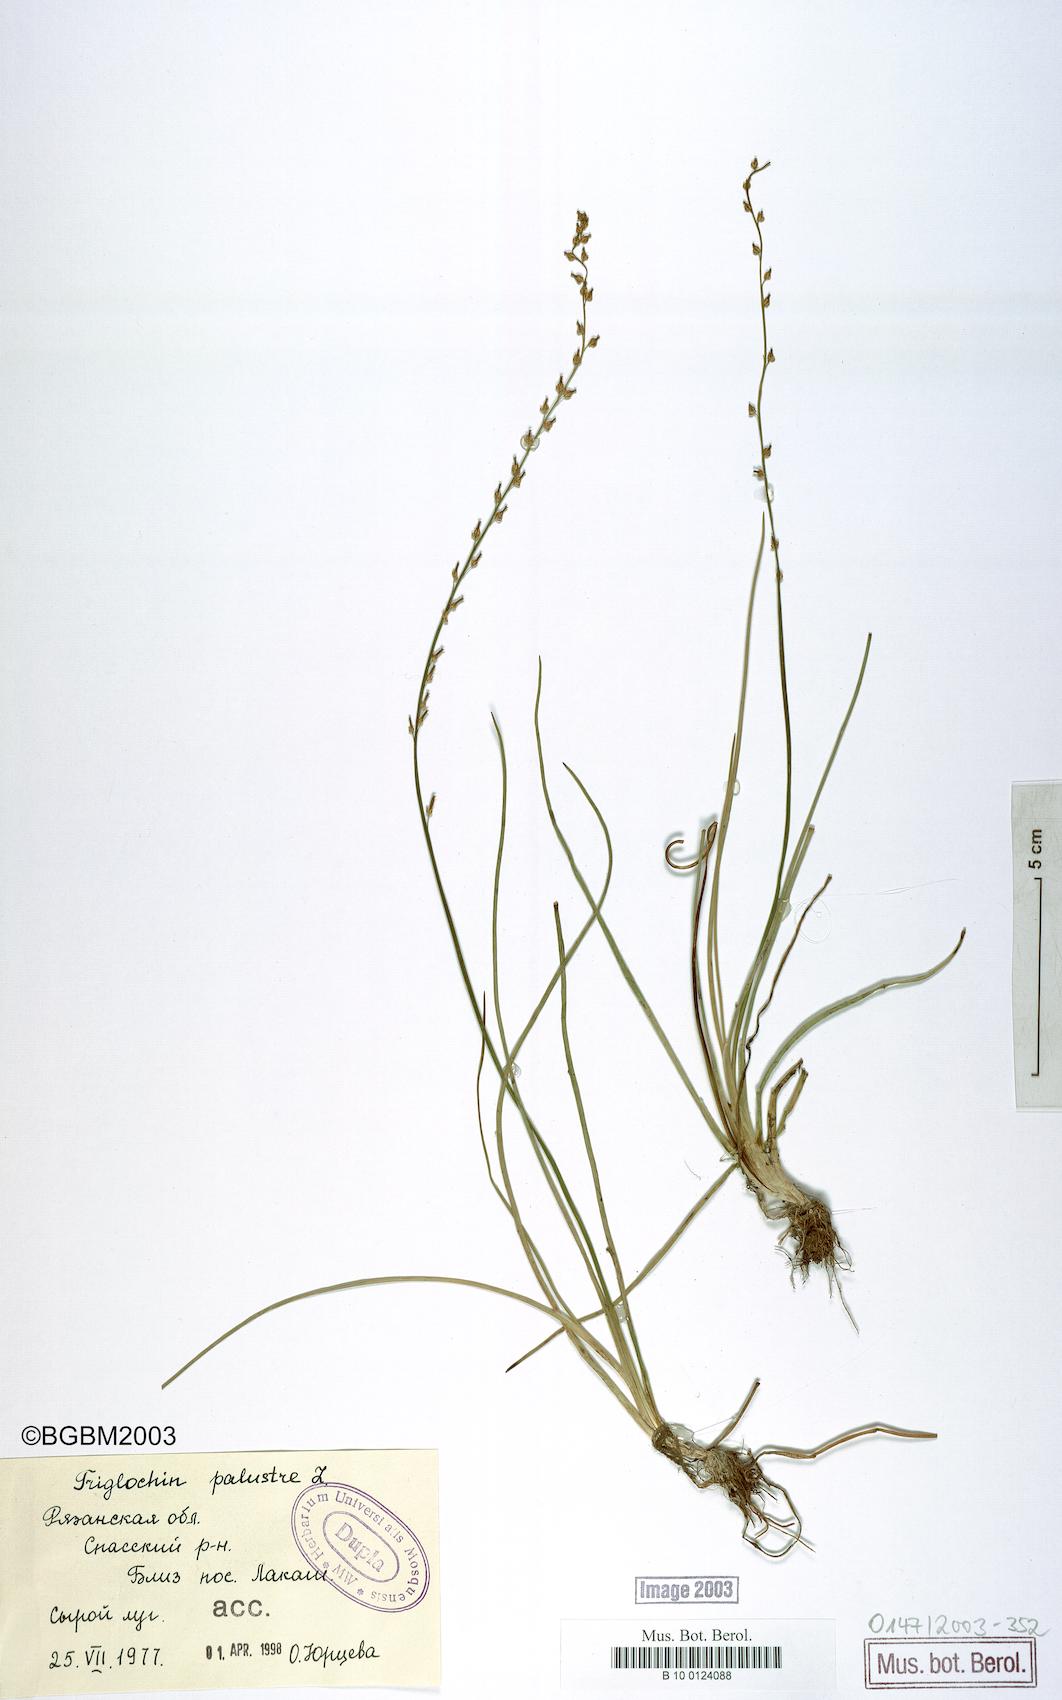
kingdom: Plantae
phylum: Tracheophyta
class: Liliopsida
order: Alismatales
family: Juncaginaceae
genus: Triglochin
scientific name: Triglochin palustris
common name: Marsh arrowgrass
